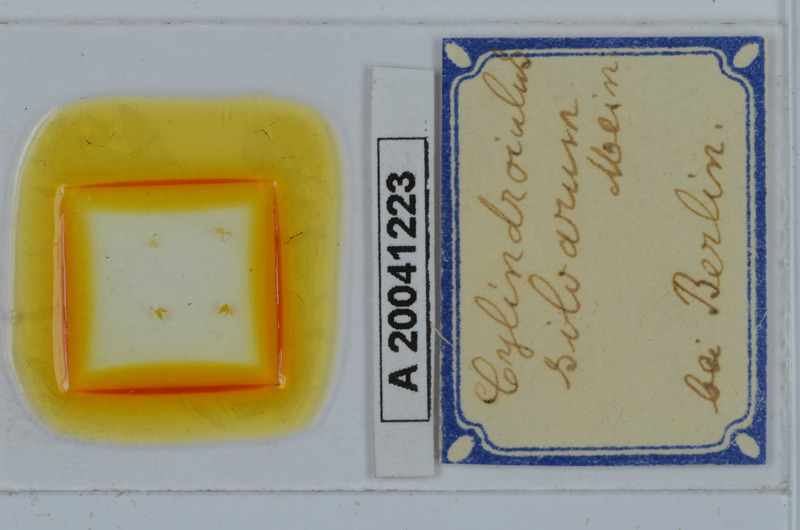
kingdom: Animalia
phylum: Arthropoda
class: Diplopoda
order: Julida
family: Julidae
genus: Cylindroiulus
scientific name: Cylindroiulus punctatus
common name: Blunt-tailed millipede
